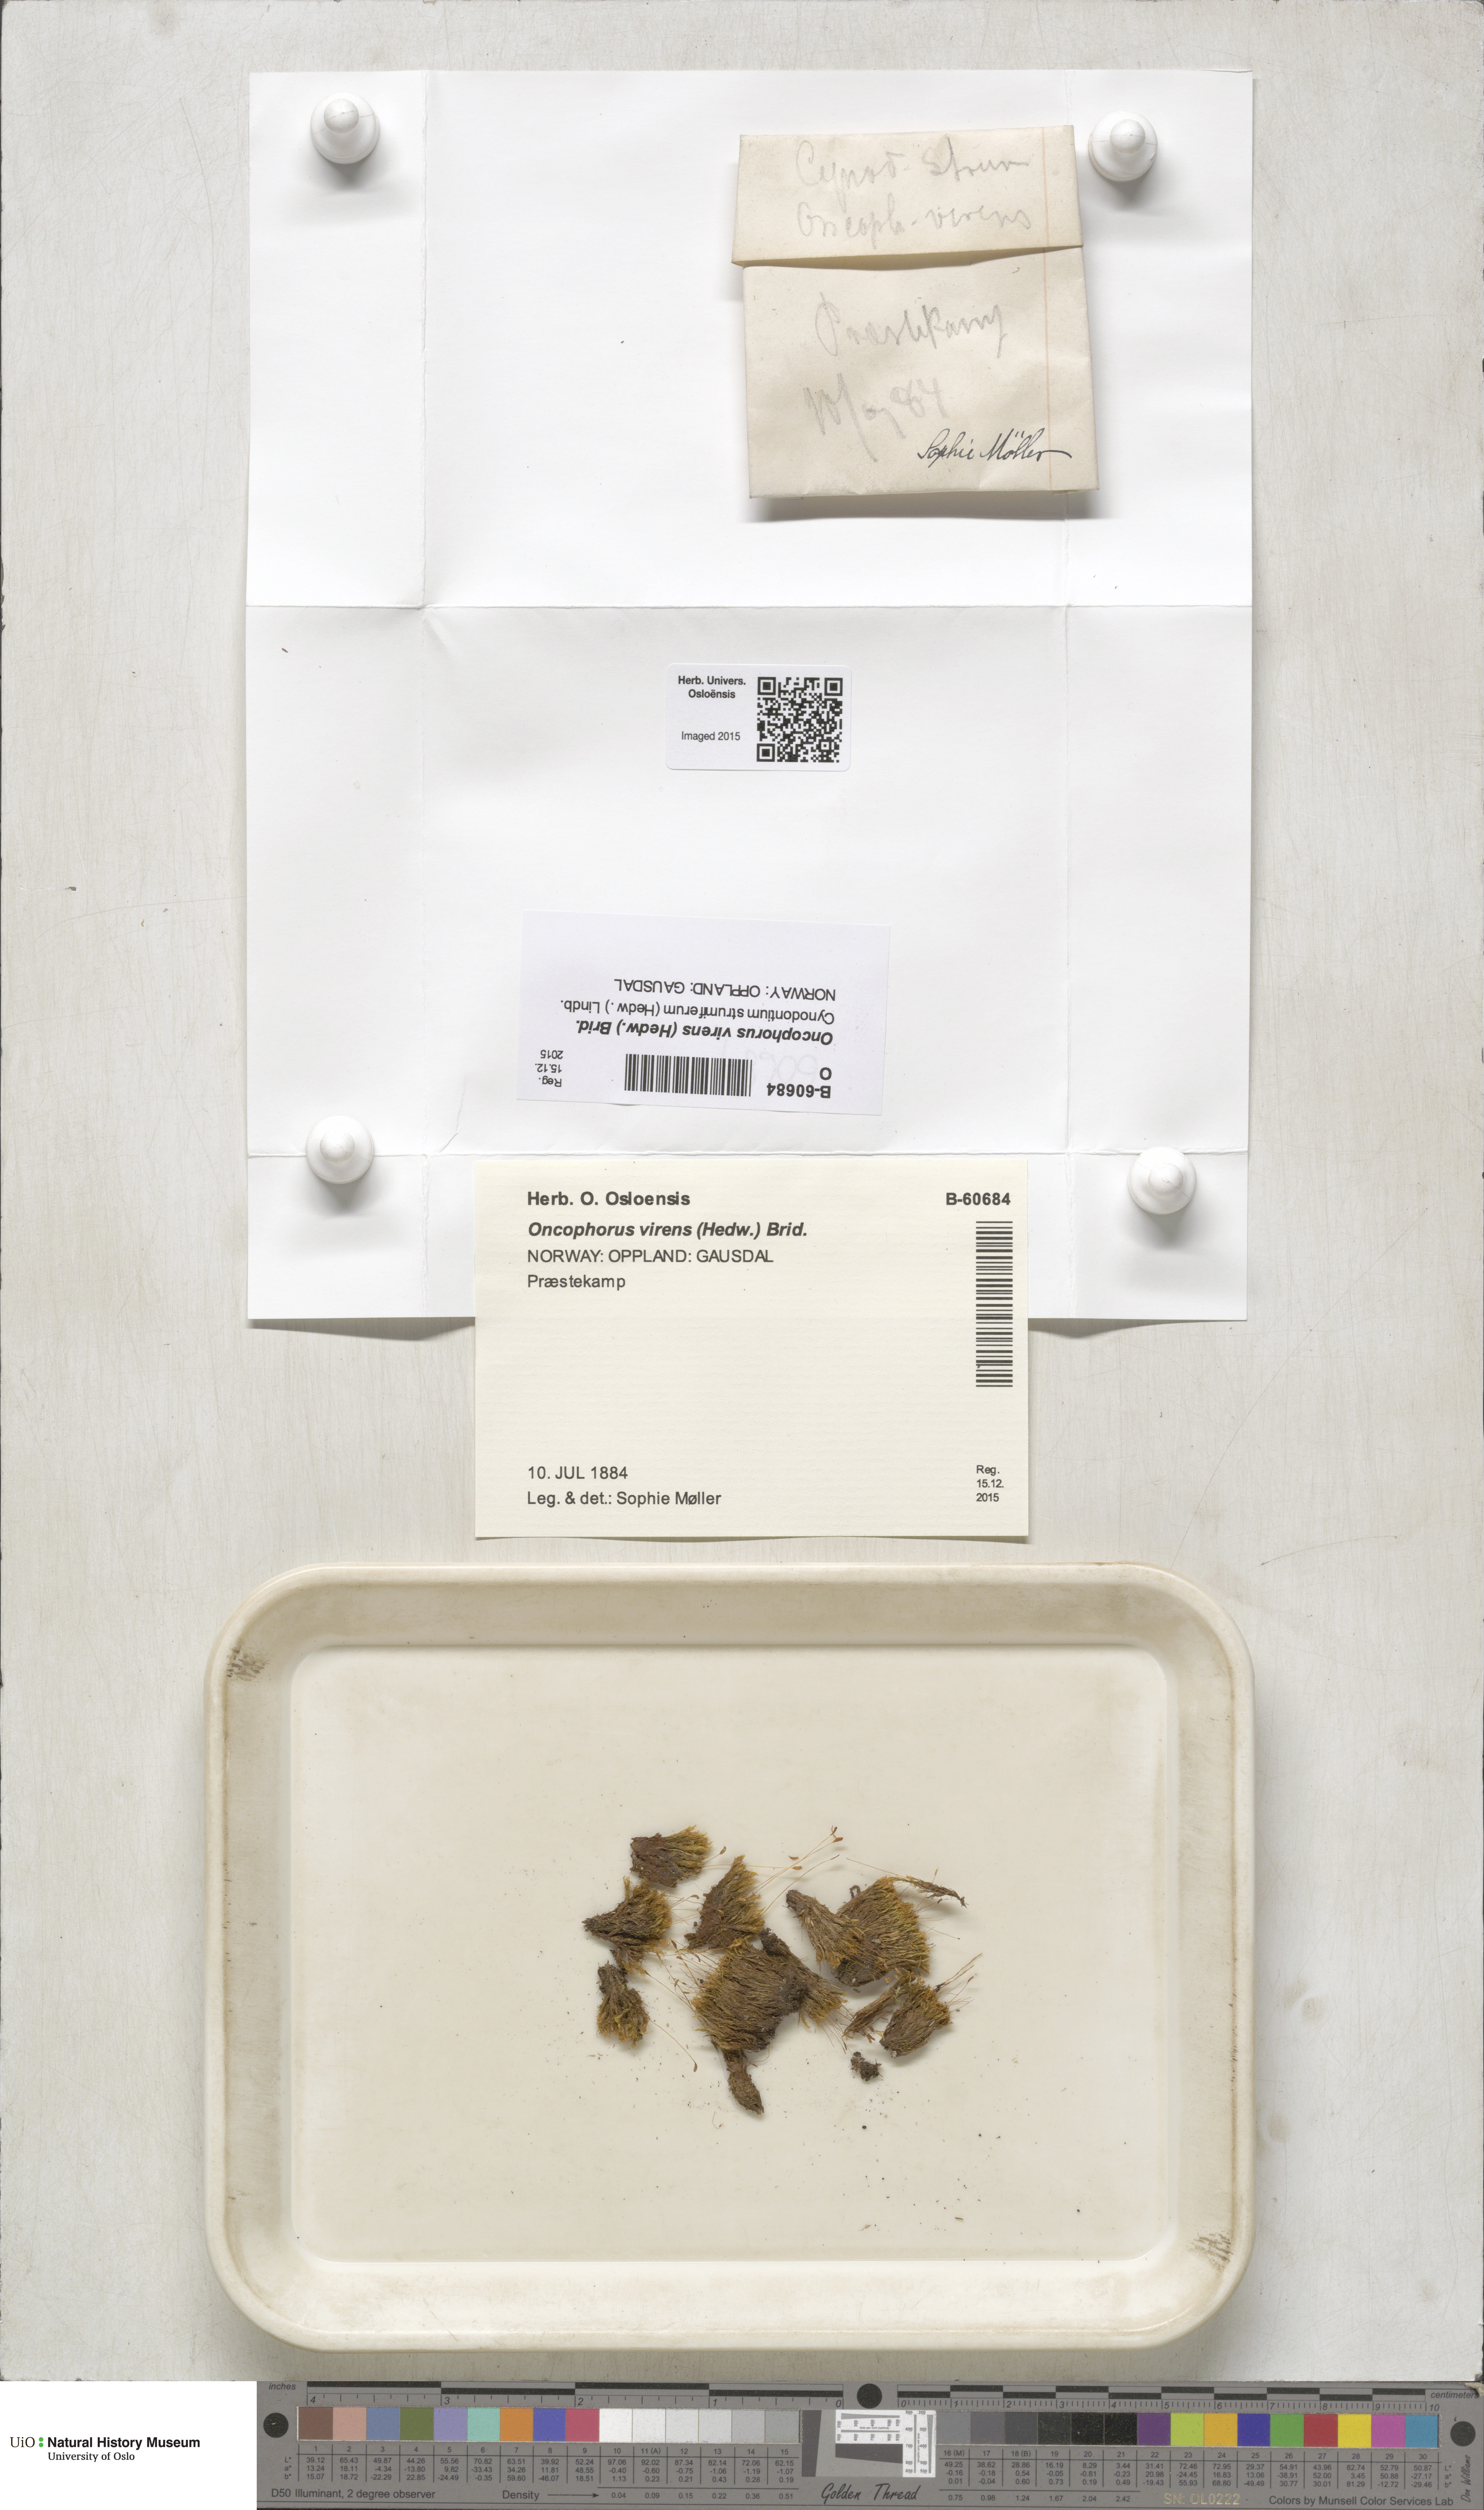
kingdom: Plantae
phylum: Bryophyta
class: Bryopsida
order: Dicranales
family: Rhabdoweisiaceae
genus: Oncophorus
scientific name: Oncophorus virens
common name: Green spur moss
